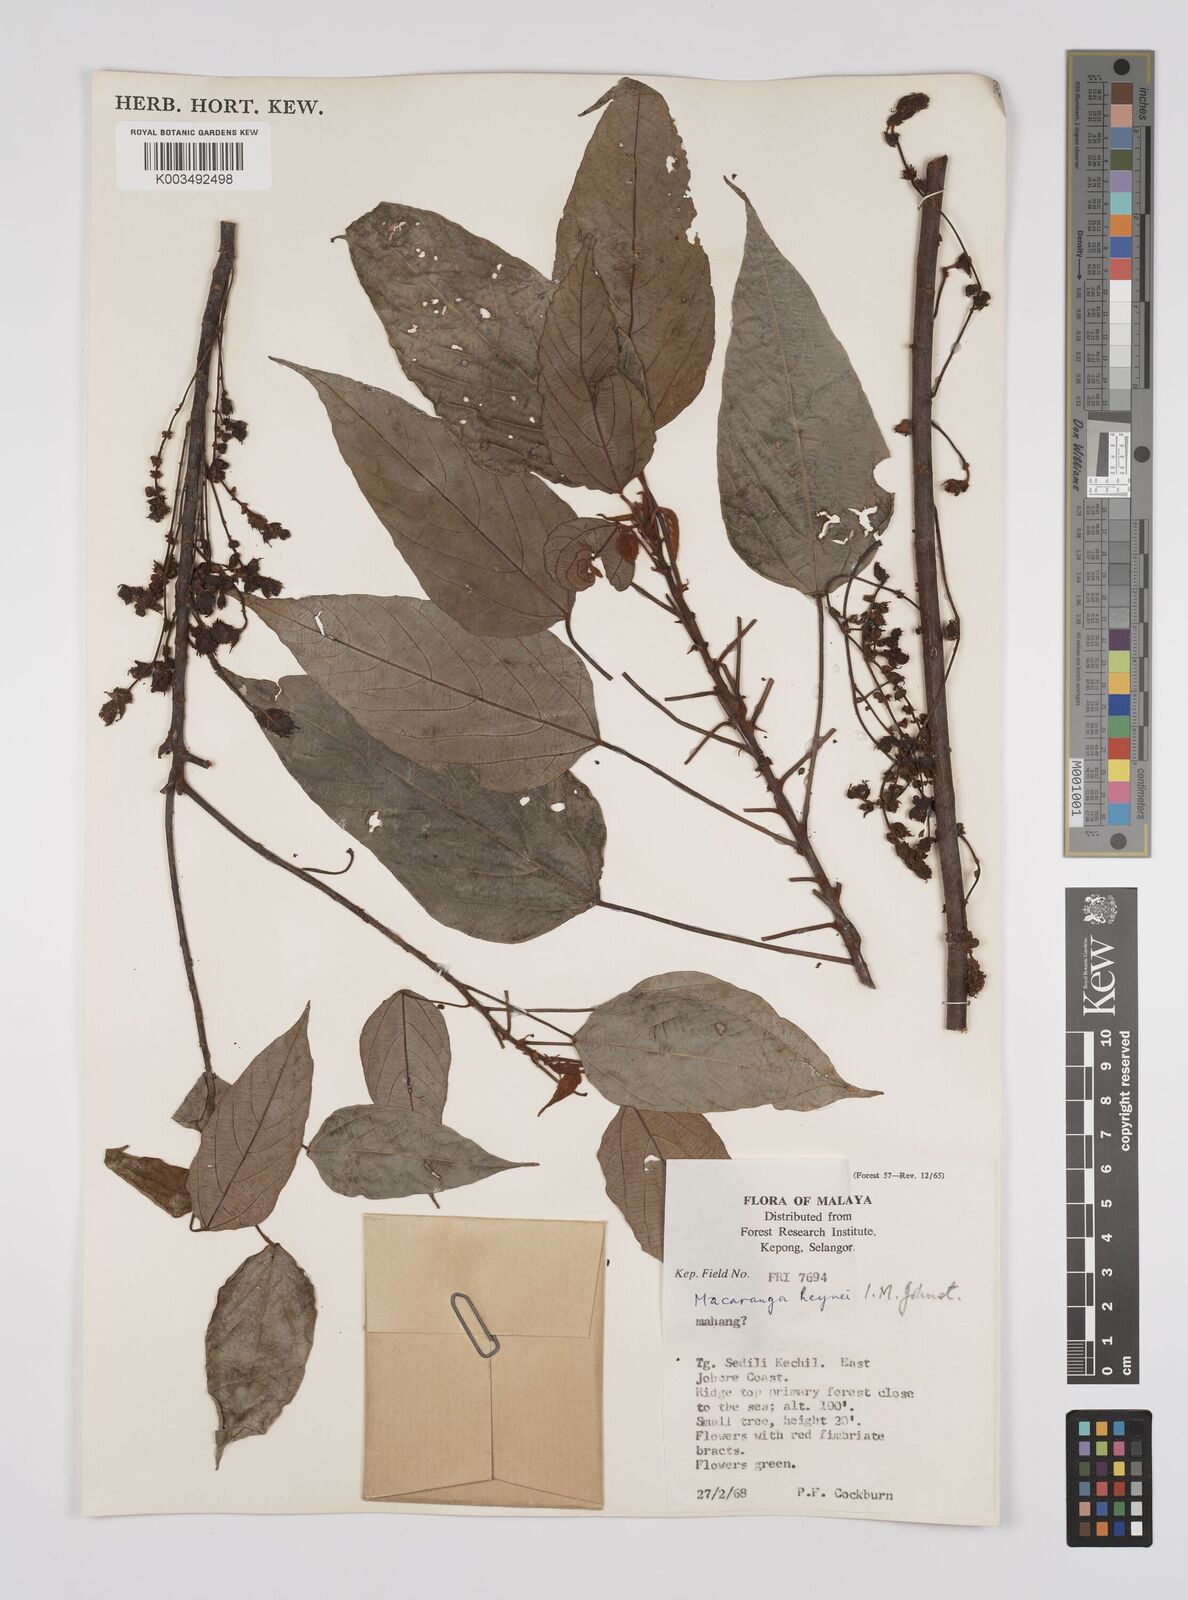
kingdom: Plantae
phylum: Tracheophyta
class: Magnoliopsida
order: Malpighiales
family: Euphorbiaceae
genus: Macaranga
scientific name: Macaranga heynei
